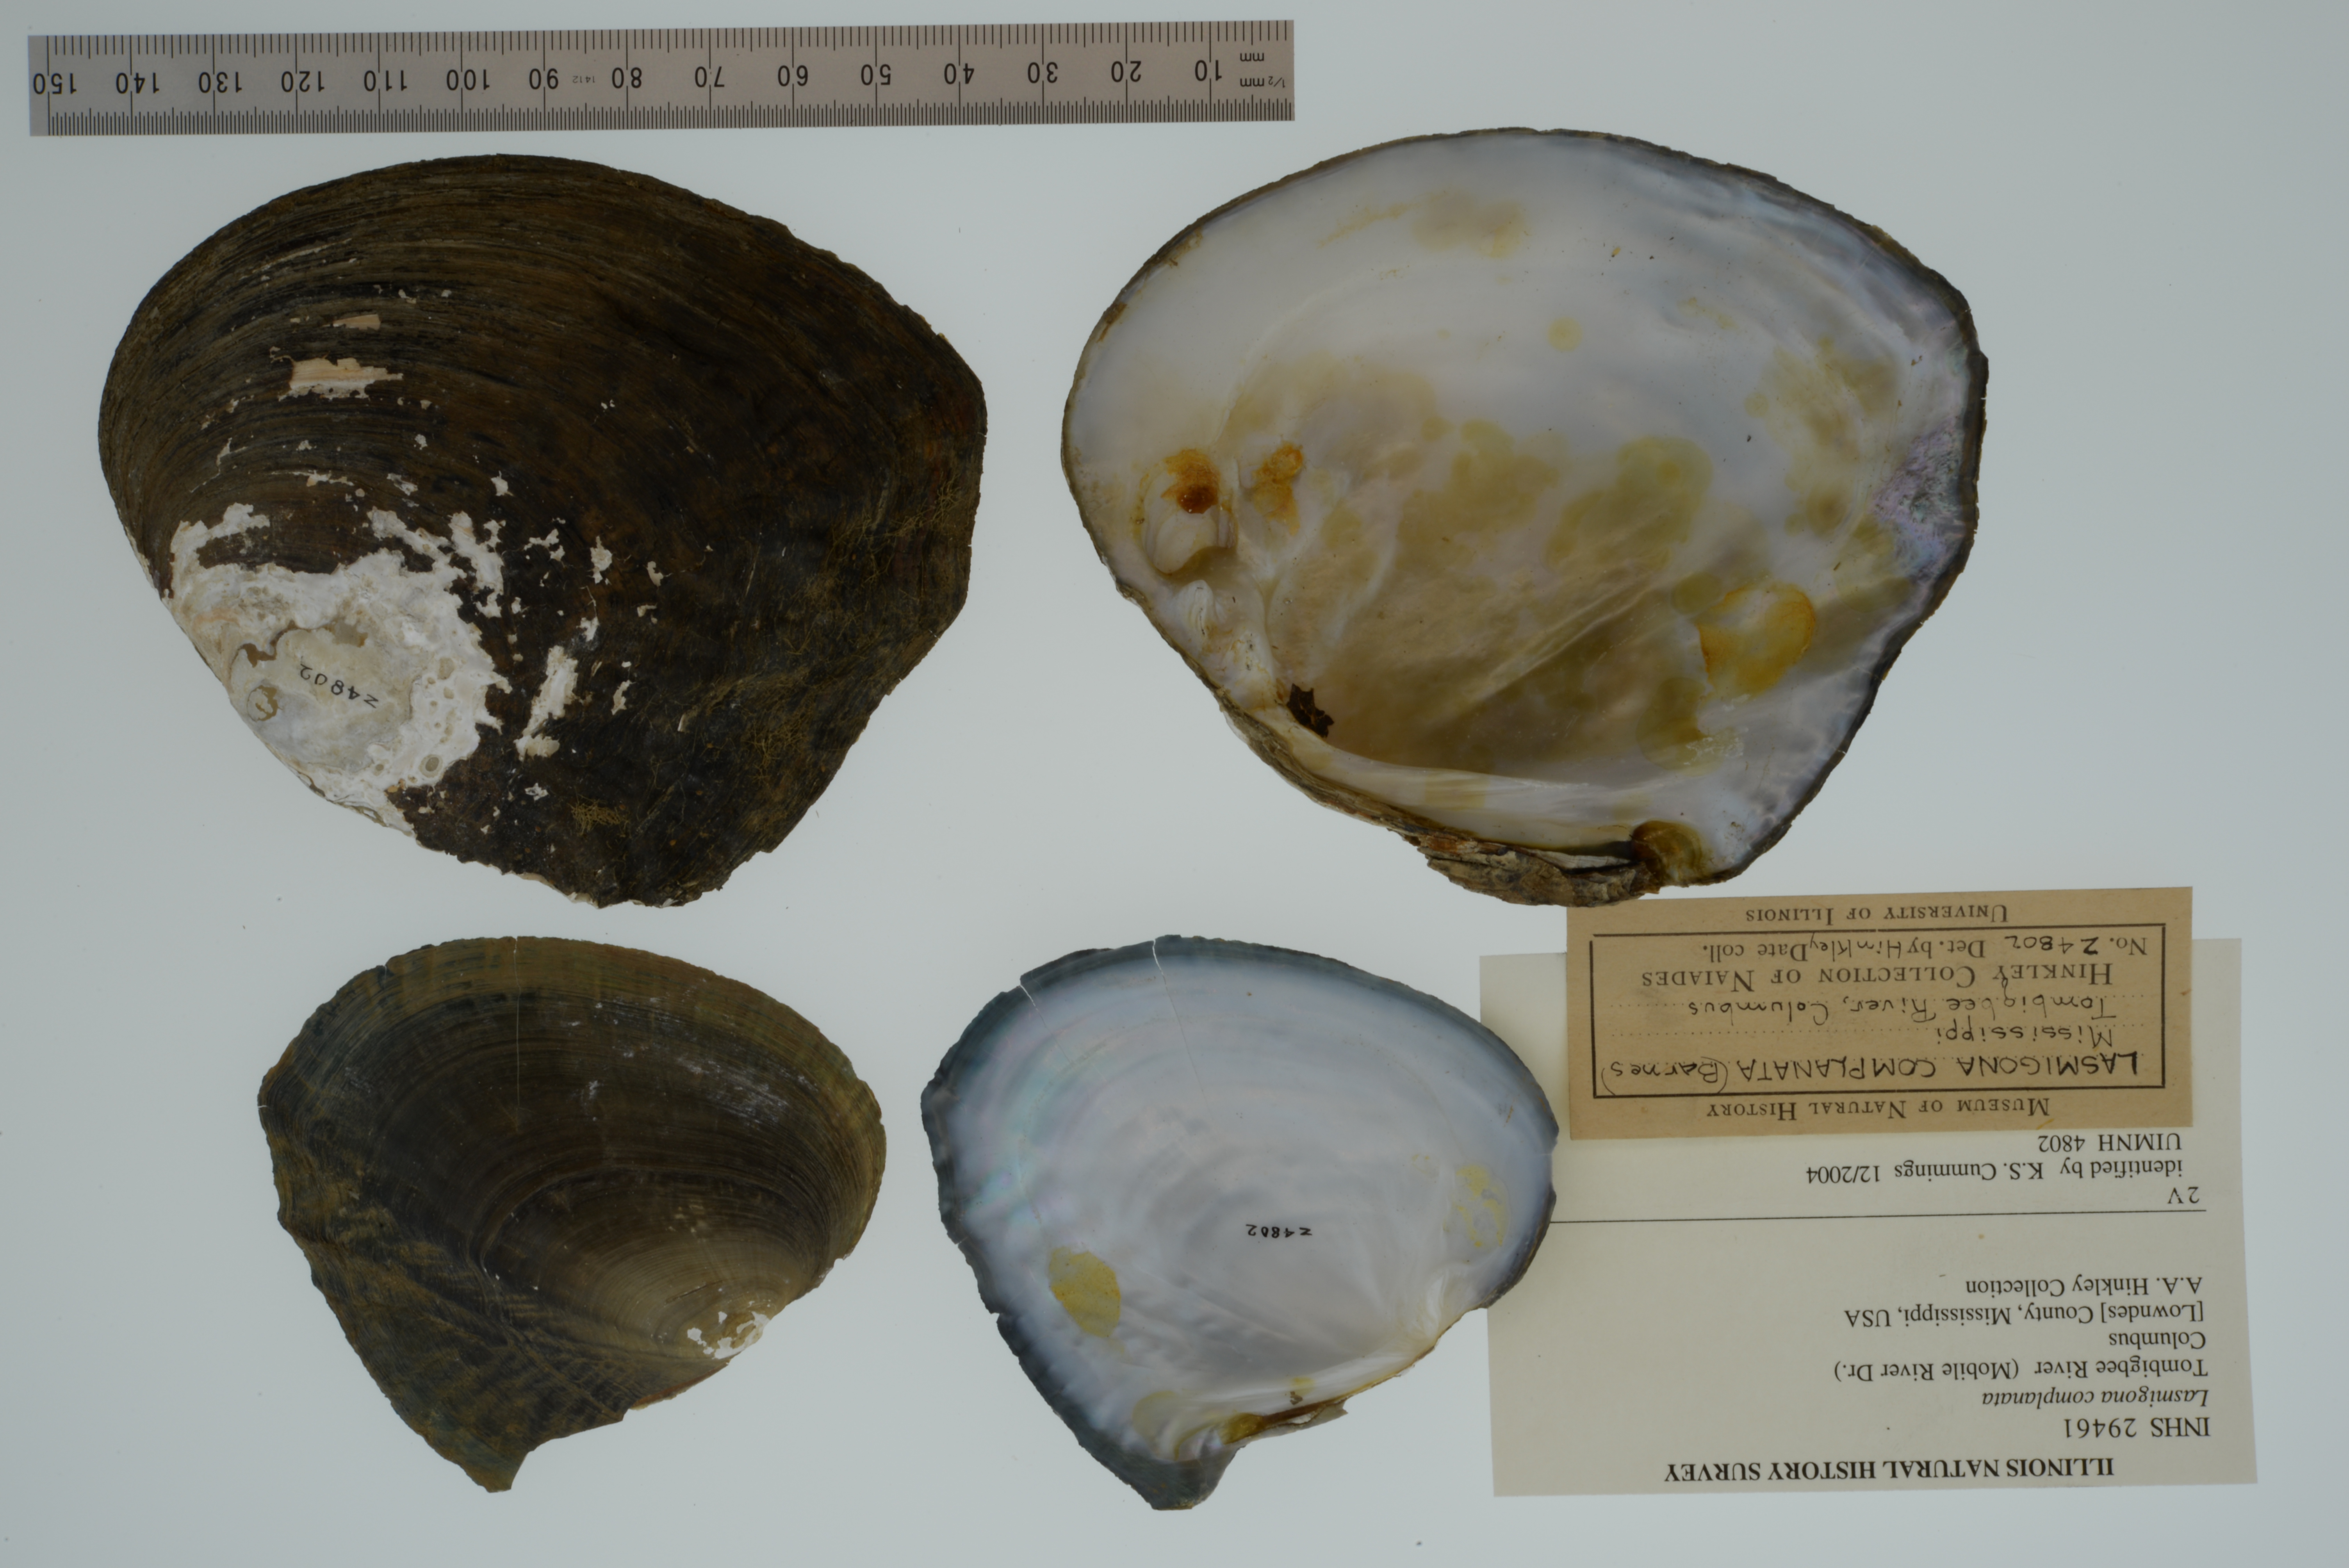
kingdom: Animalia
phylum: Mollusca
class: Bivalvia
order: Unionida
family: Unionidae
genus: Lasmigona
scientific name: Lasmigona complanata
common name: White heelsplitter
